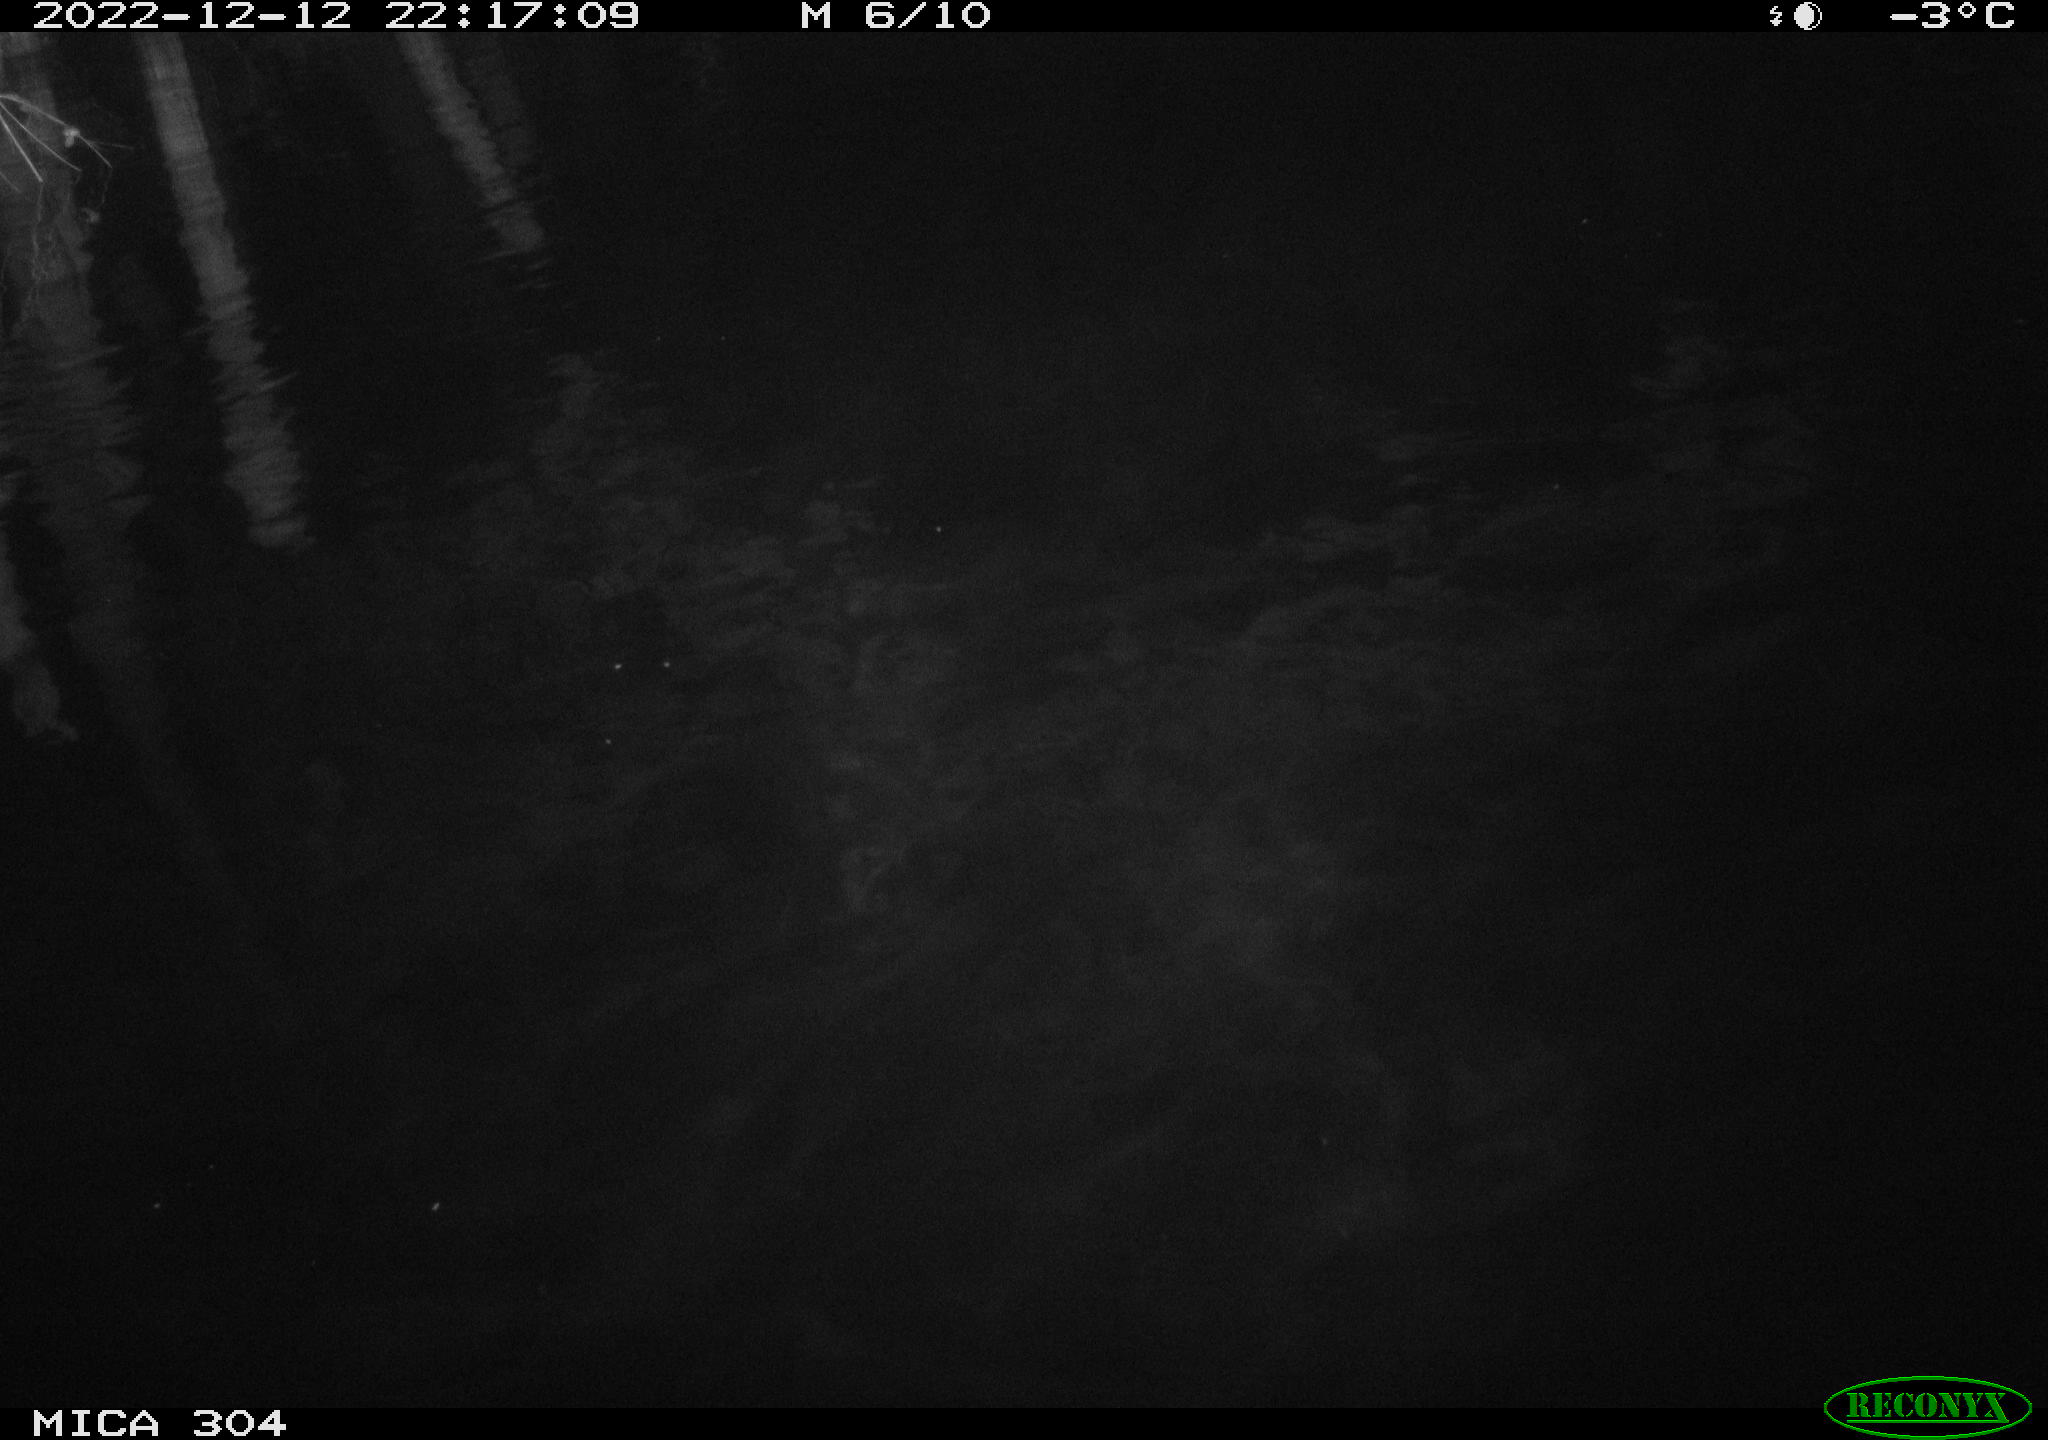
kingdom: Animalia
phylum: Chordata
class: Aves
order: Anseriformes
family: Anatidae
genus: Anas
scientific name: Anas
